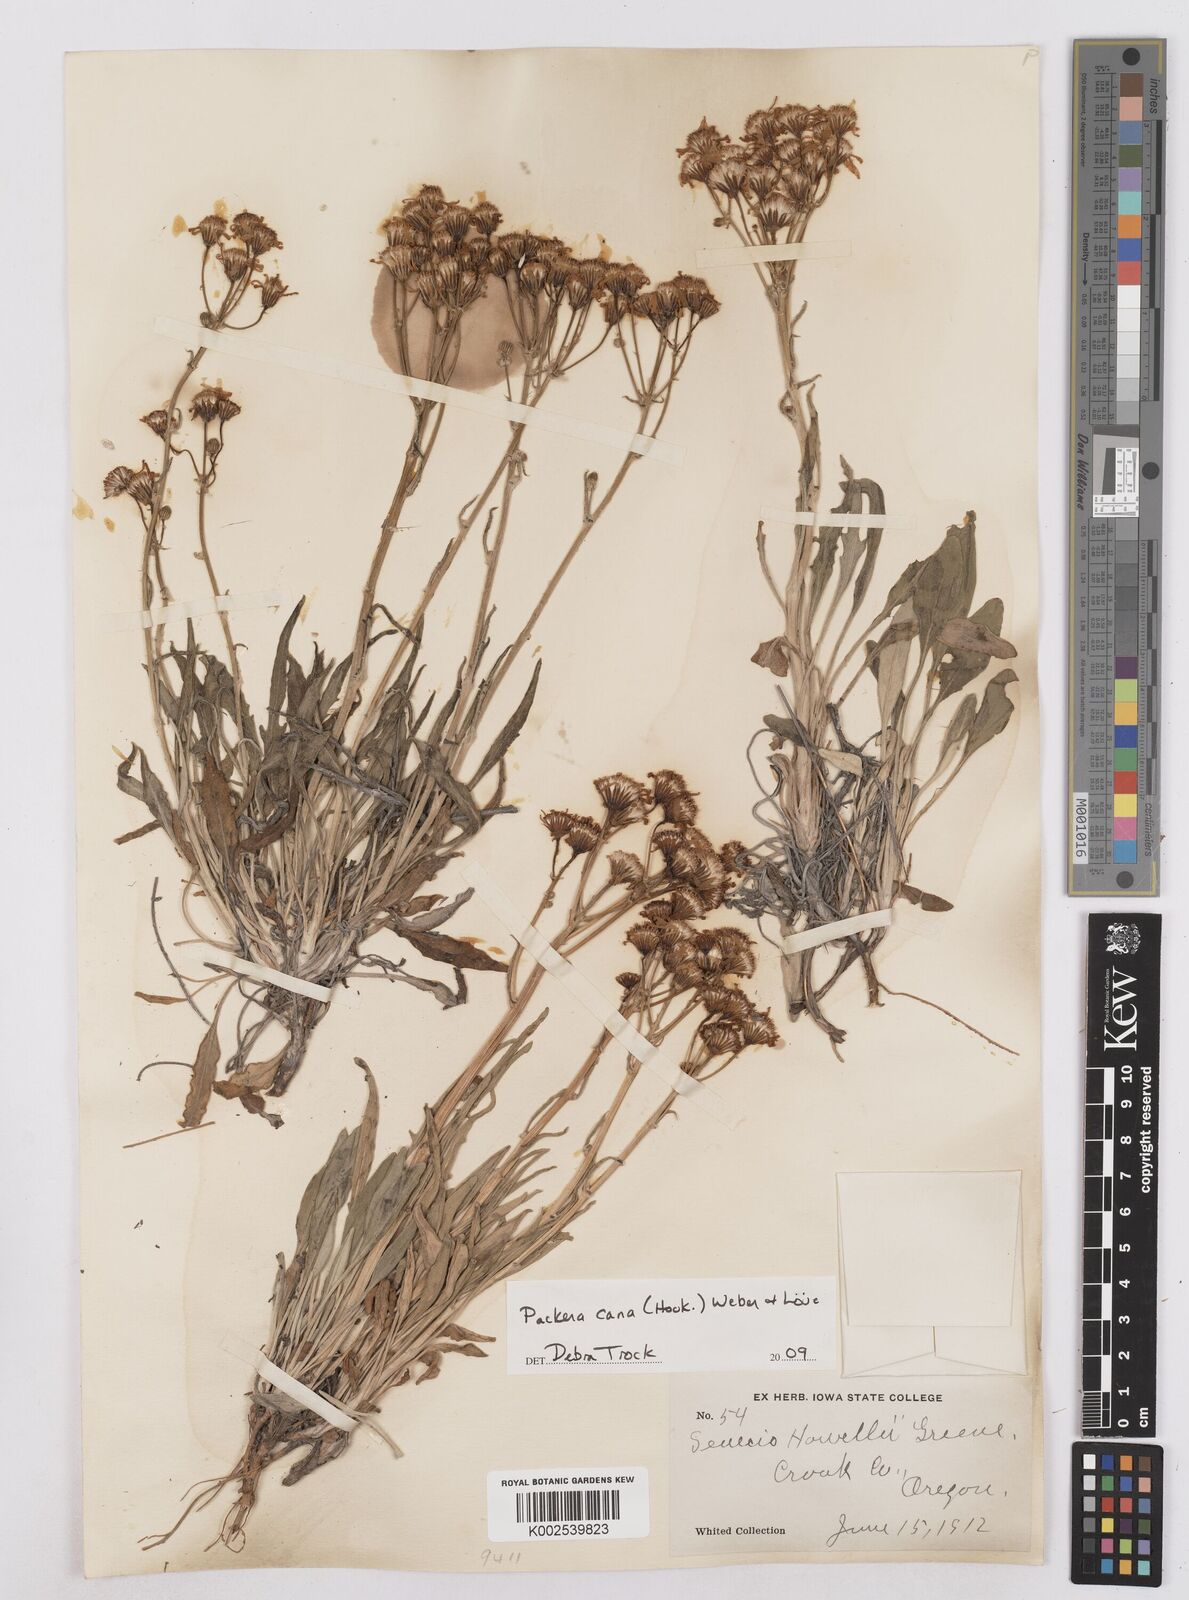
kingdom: Plantae
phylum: Tracheophyta
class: Magnoliopsida
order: Asterales
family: Asteraceae
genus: Packera
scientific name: Packera cana
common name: Woolly groundsel
